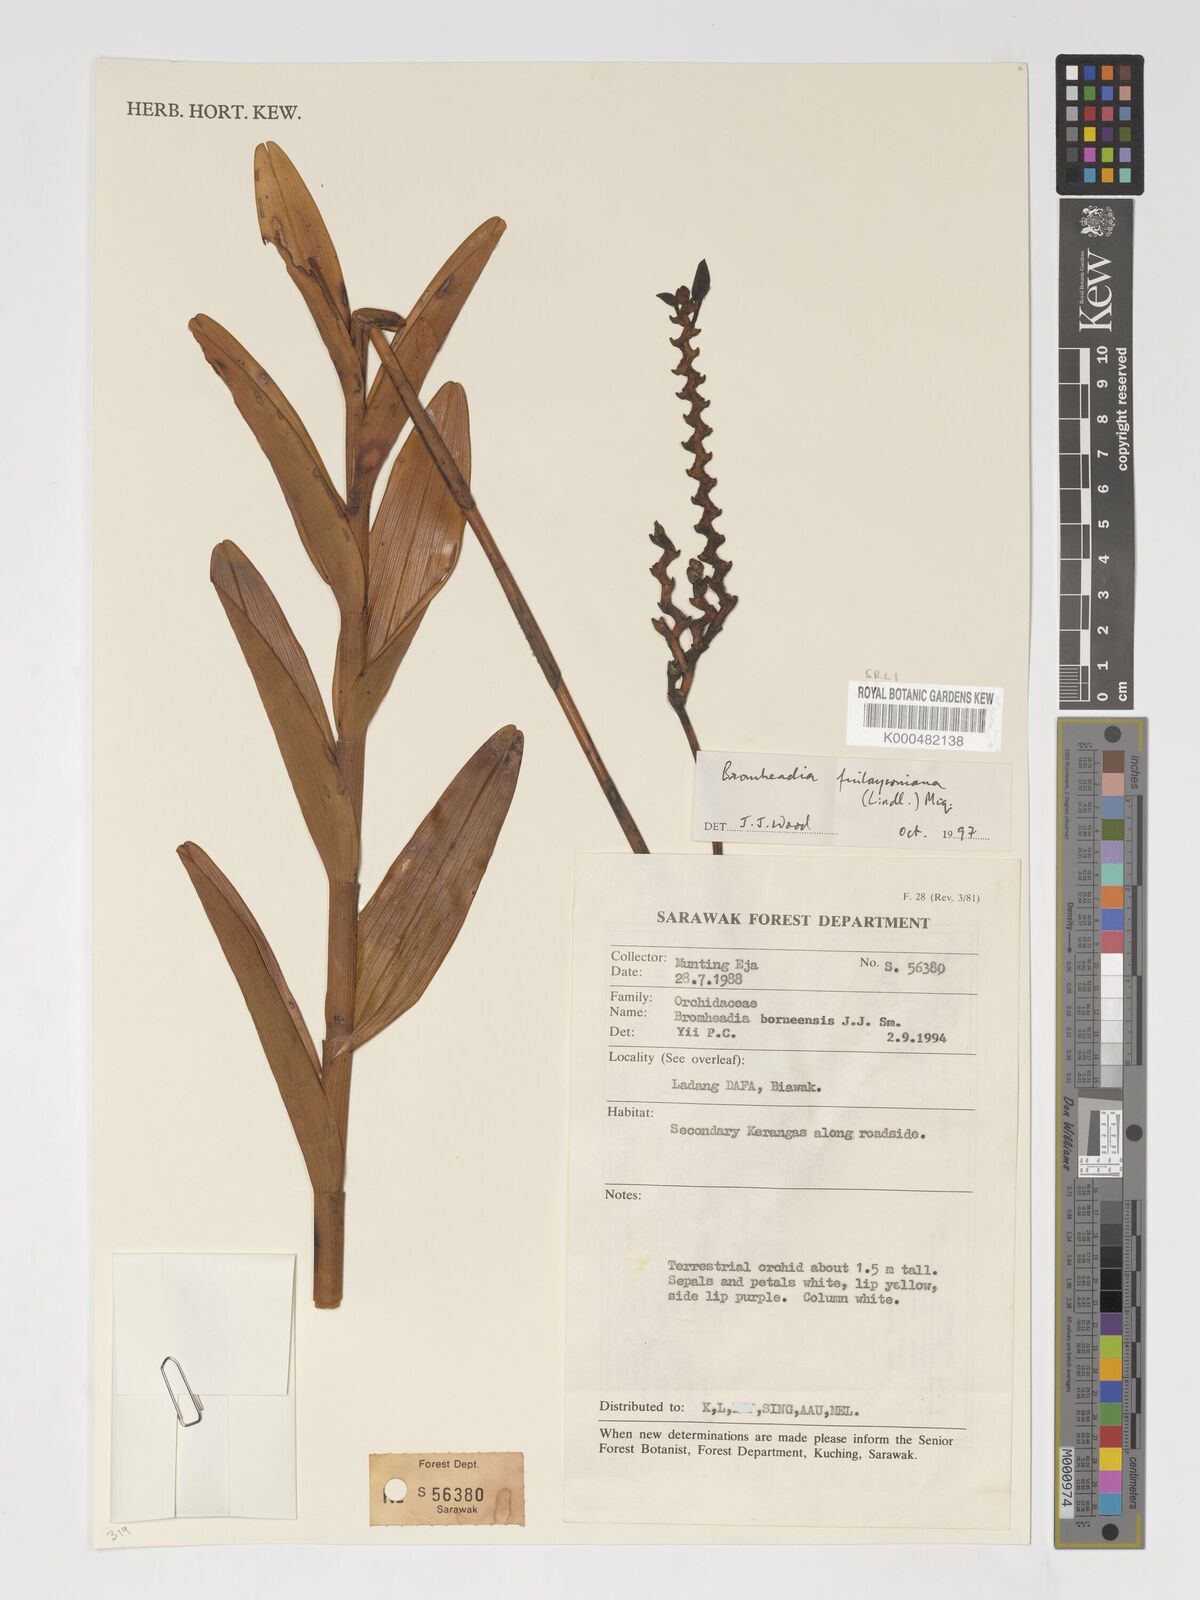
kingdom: Plantae
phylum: Tracheophyta
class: Liliopsida
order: Asparagales
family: Orchidaceae
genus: Bromheadia
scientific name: Bromheadia finlaysoniana
